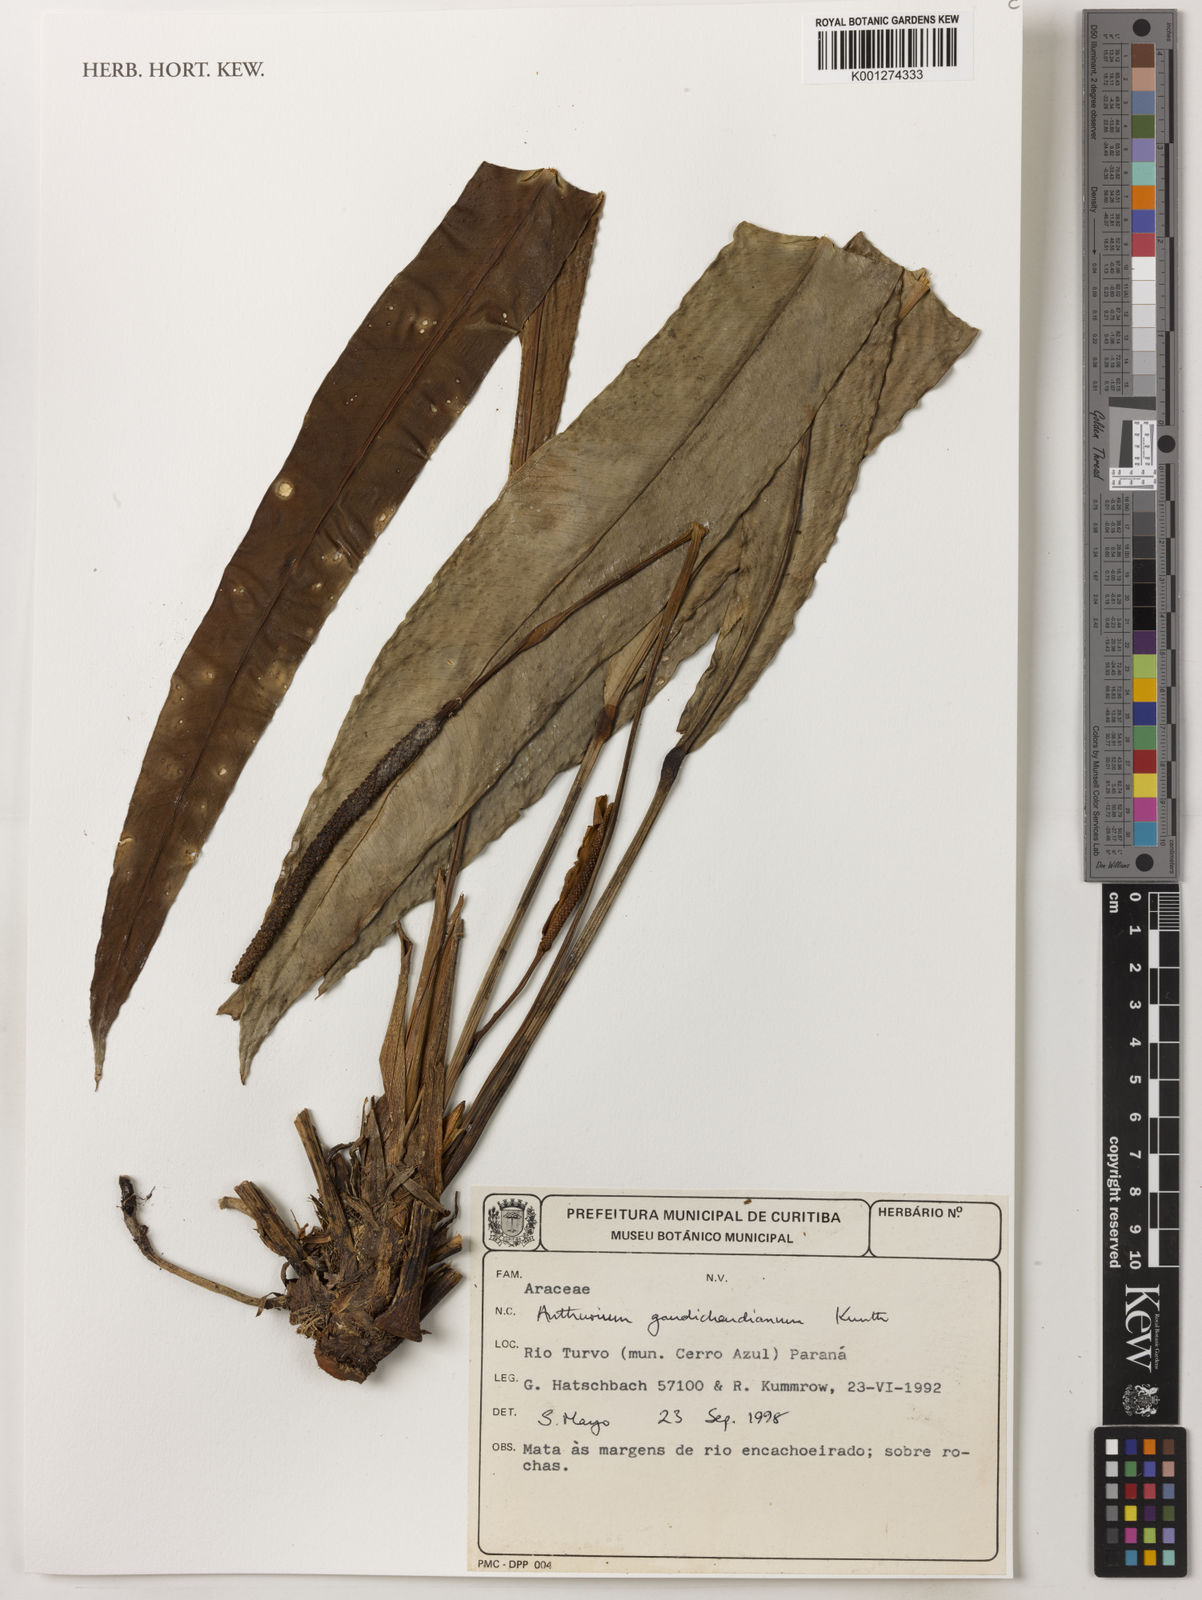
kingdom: Plantae
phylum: Tracheophyta
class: Liliopsida
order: Alismatales
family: Araceae
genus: Anthurium
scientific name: Anthurium gaudichaudianum
